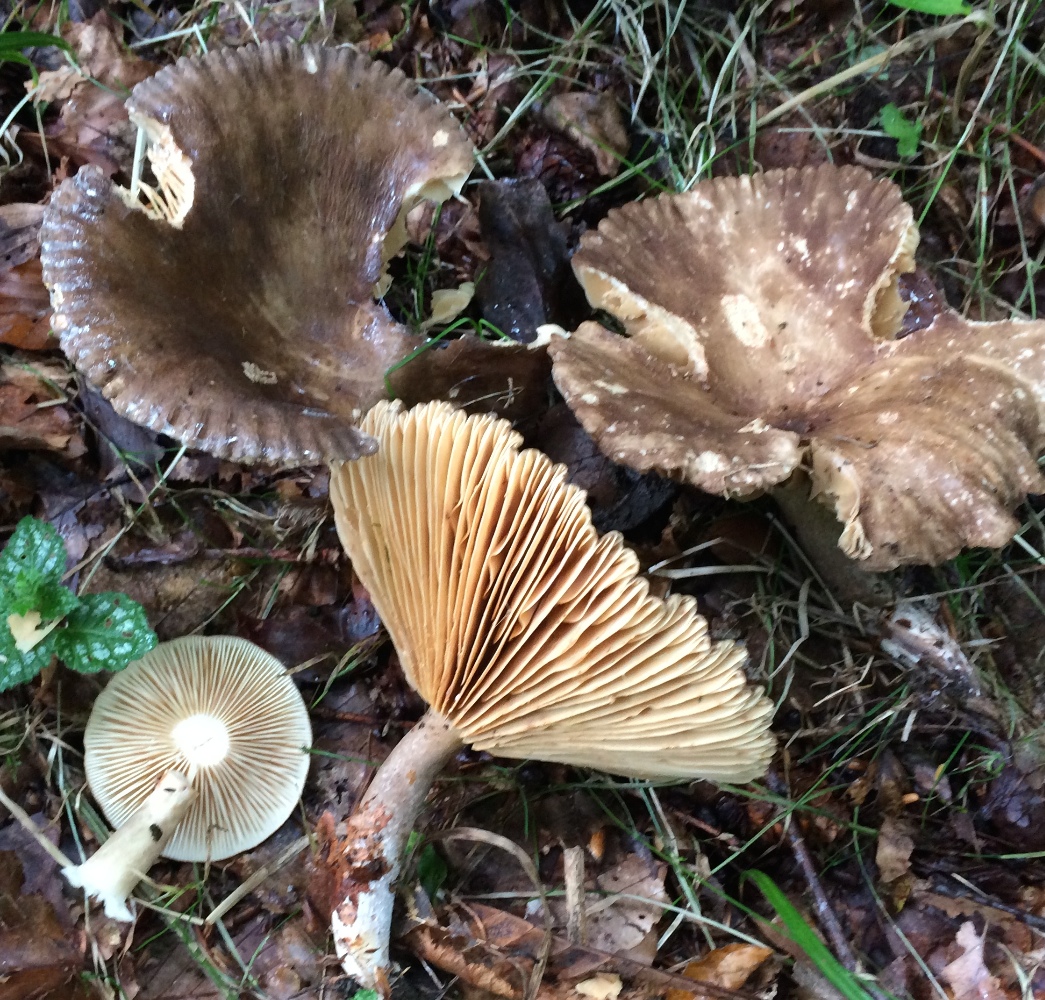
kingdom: Fungi
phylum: Basidiomycota
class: Agaricomycetes
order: Russulales
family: Russulaceae
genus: Lactarius
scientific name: Lactarius romagnesii
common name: fjernbladet mælkehat
